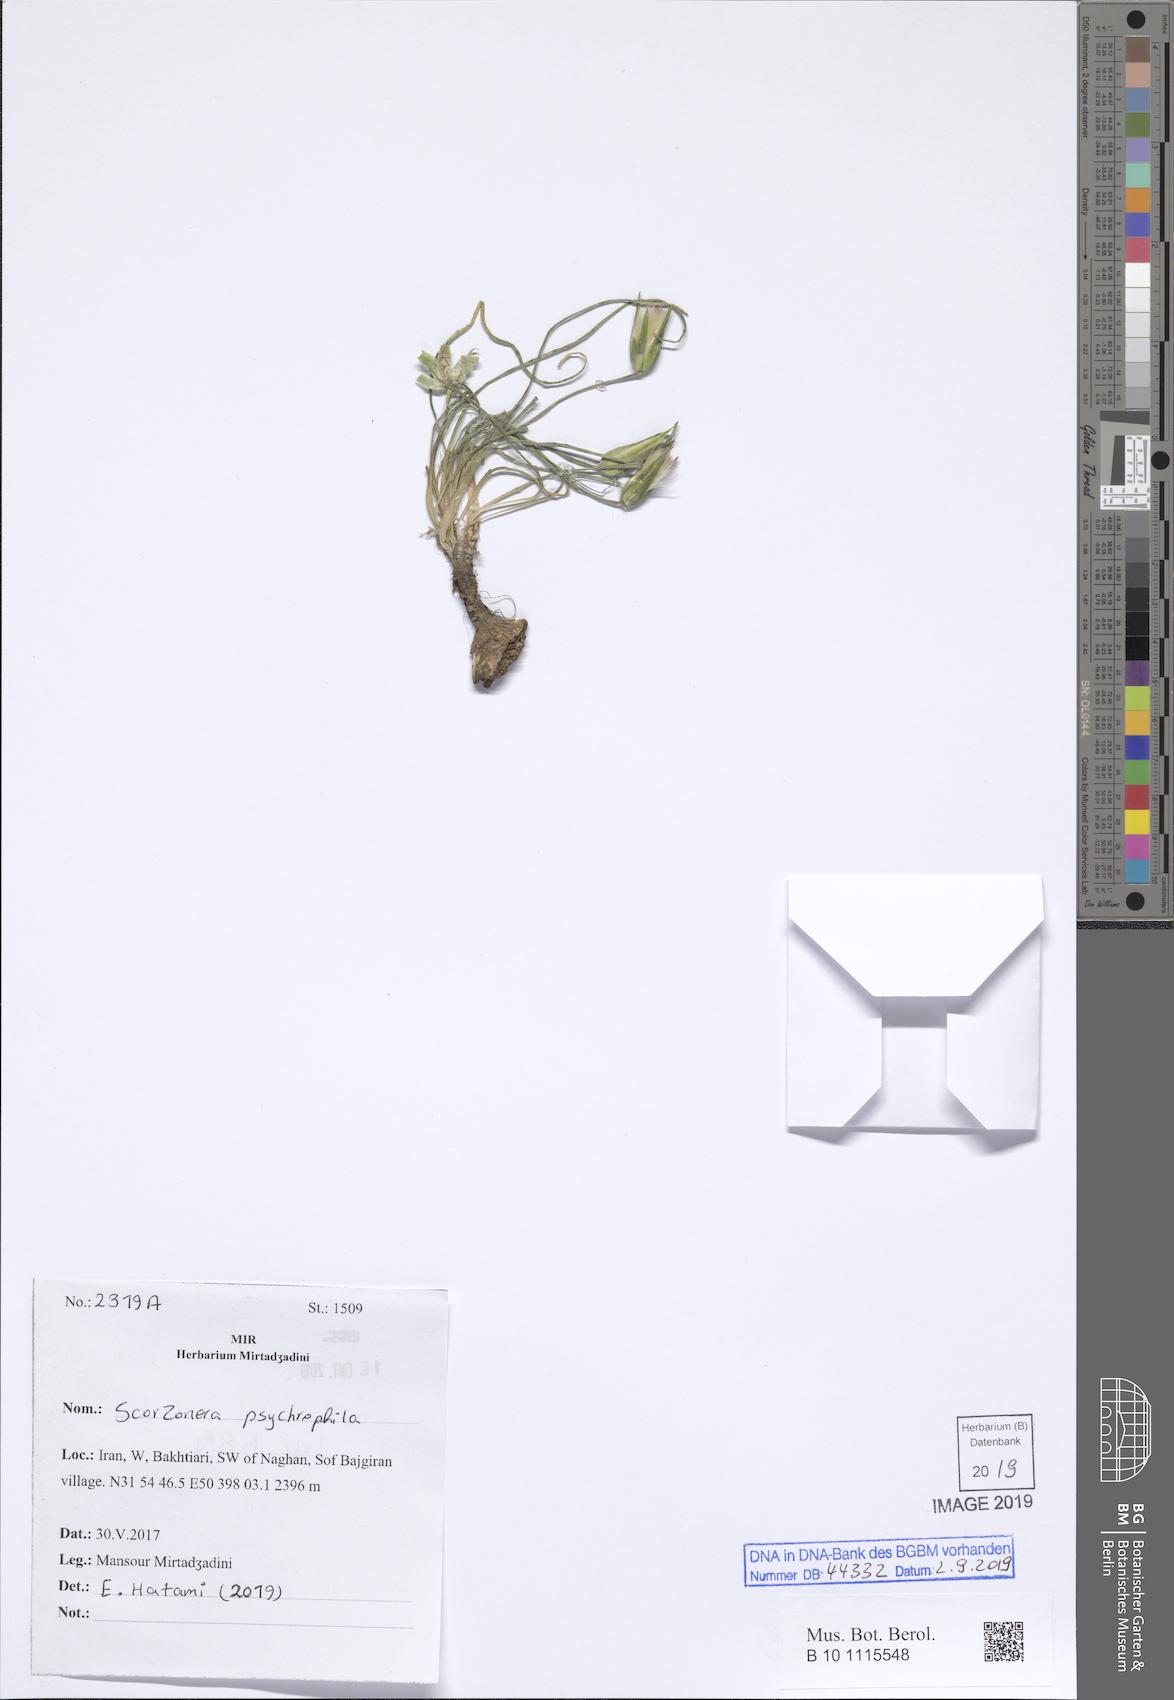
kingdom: Plantae
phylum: Tracheophyta
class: Magnoliopsida
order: Asterales
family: Asteraceae
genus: Gelasia
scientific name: Gelasia psychrophila
